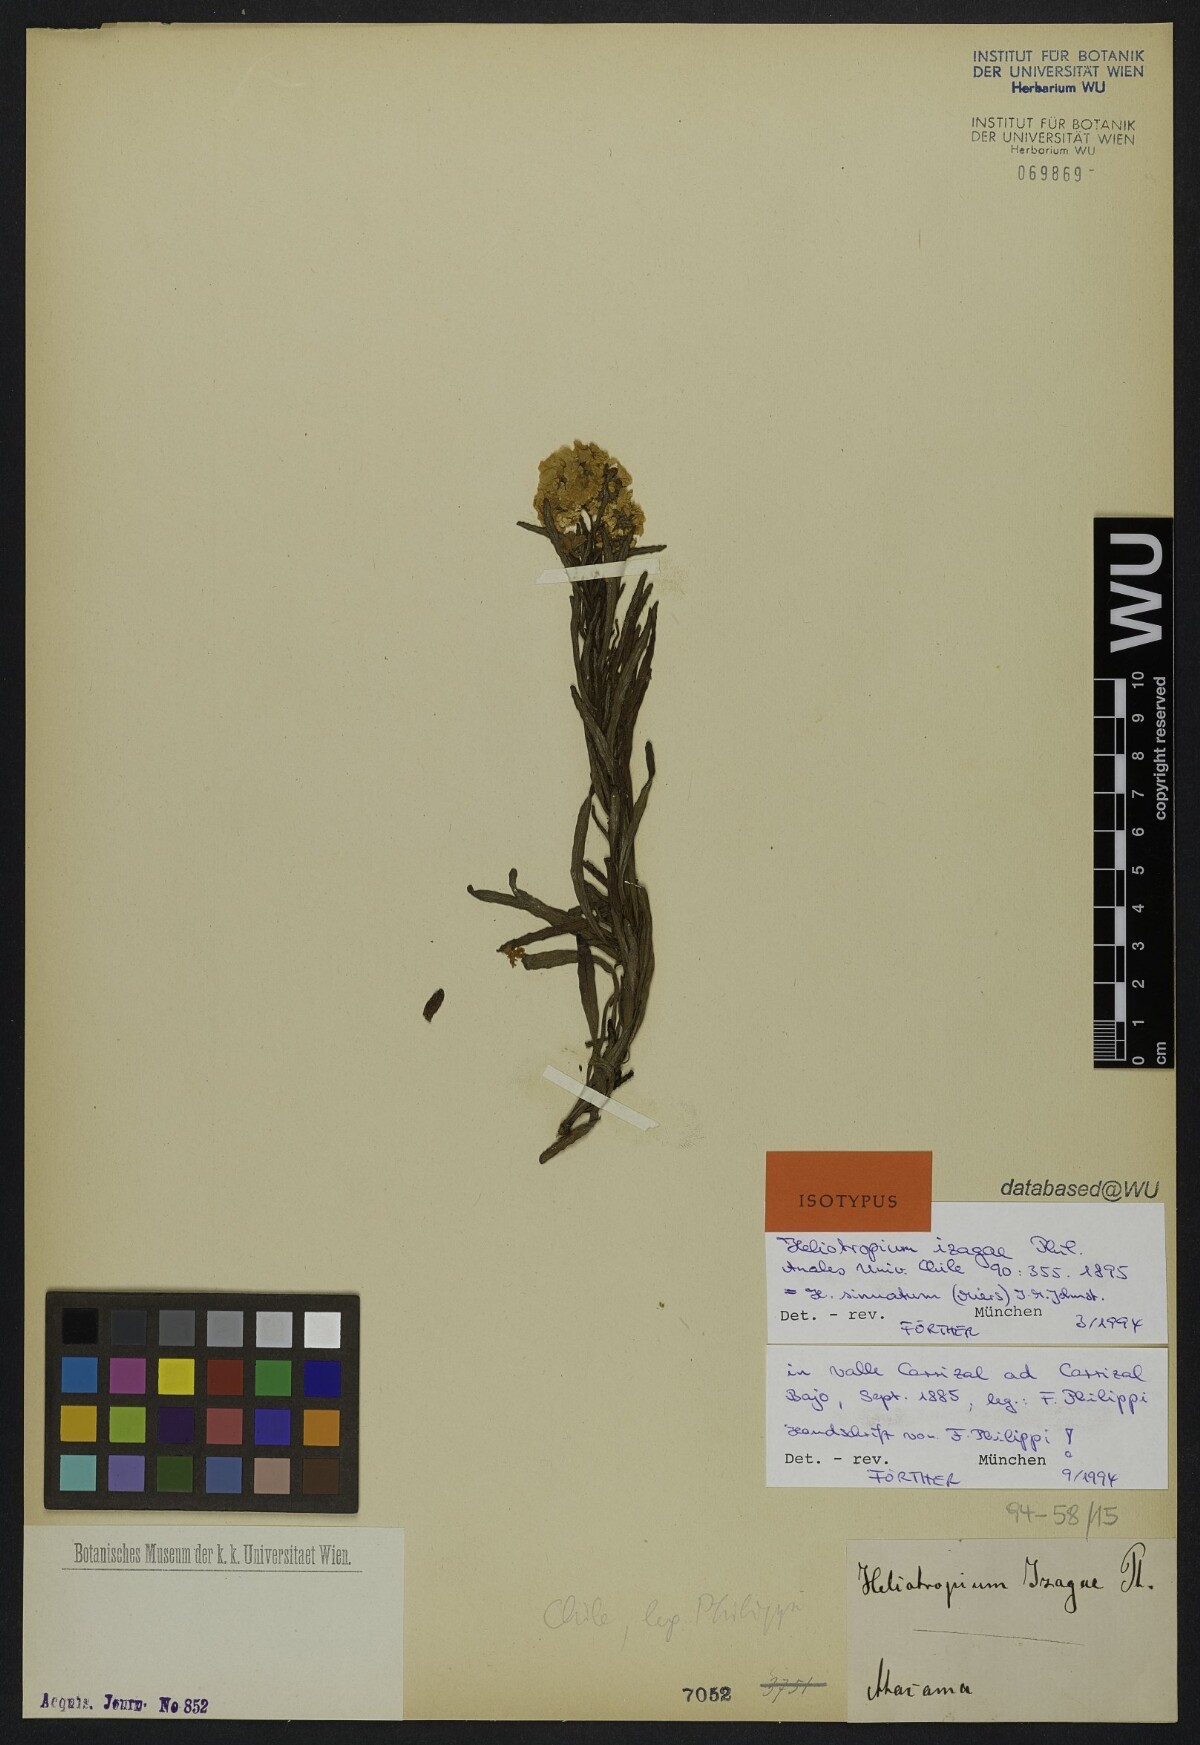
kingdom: Plantae
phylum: Tracheophyta
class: Magnoliopsida
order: Boraginales
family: Heliotropiaceae
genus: Heliotropium
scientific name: Heliotropium sinuatum
